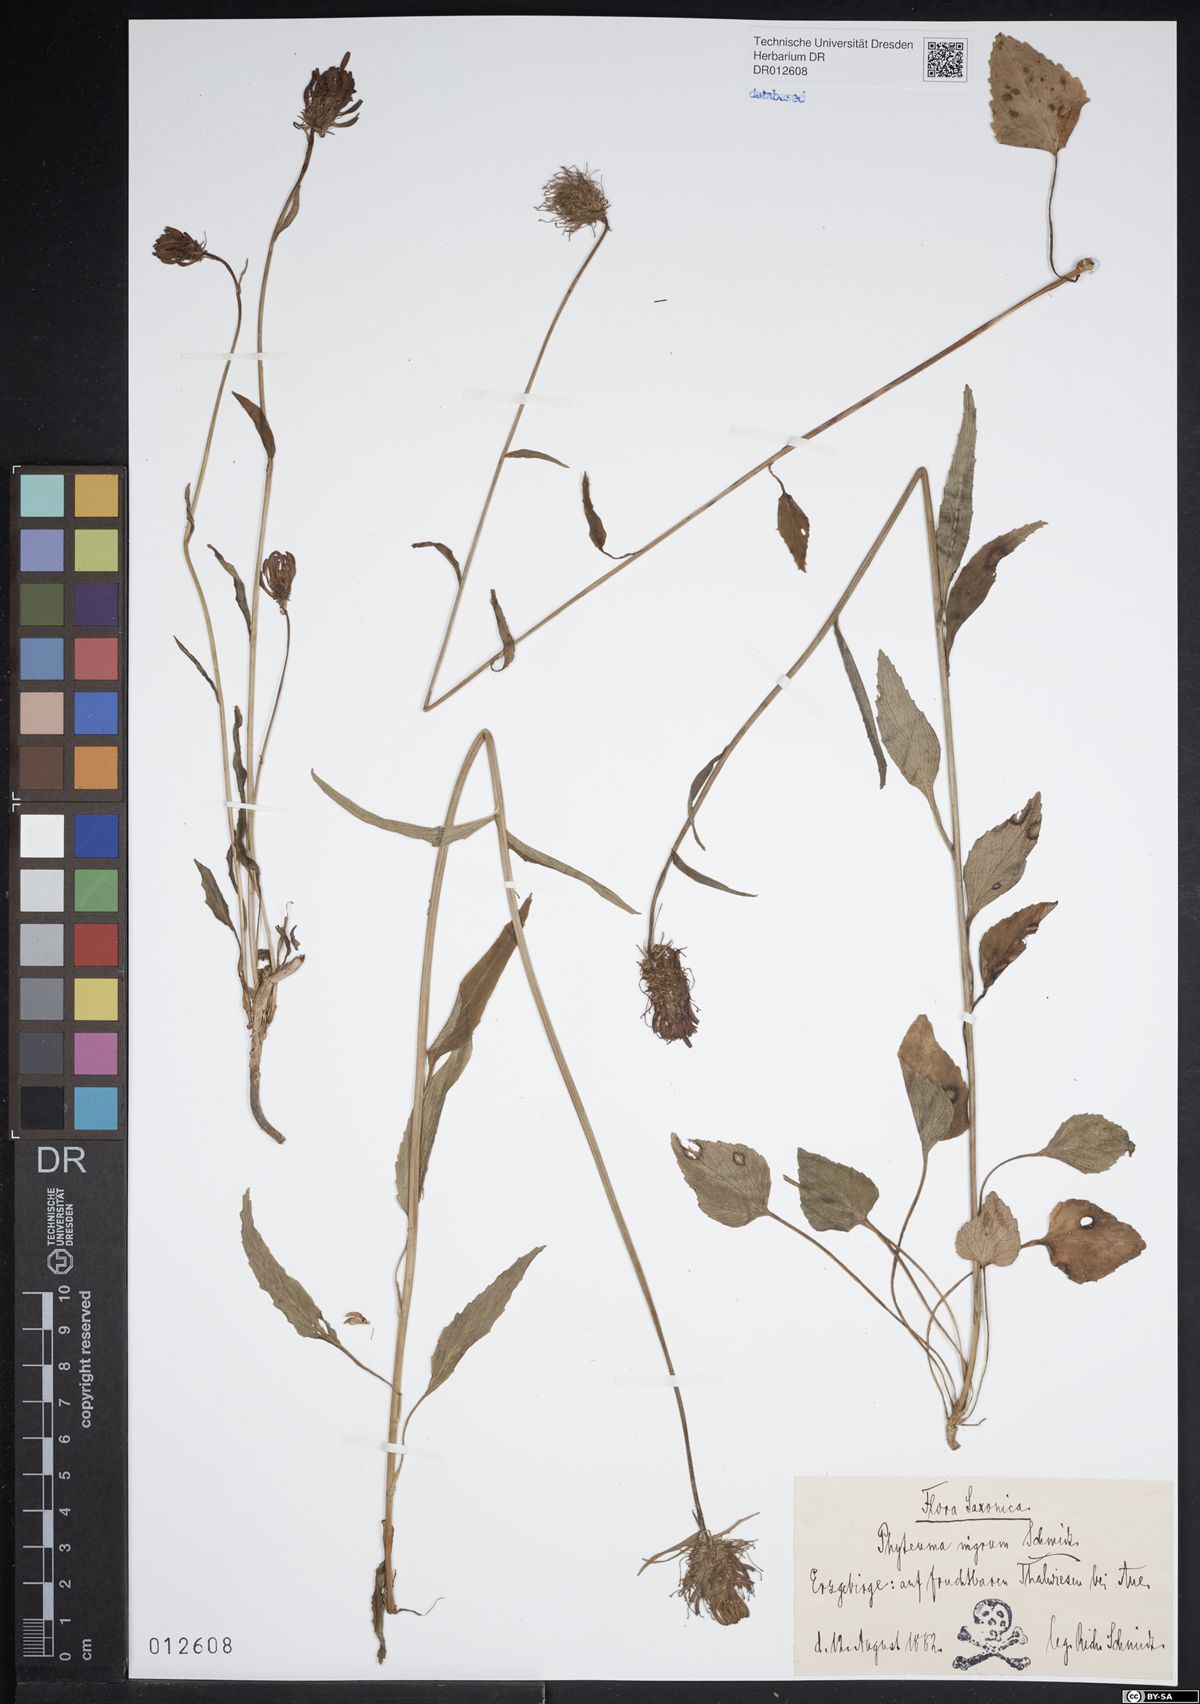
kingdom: Plantae
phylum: Tracheophyta
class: Magnoliopsida
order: Asterales
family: Campanulaceae
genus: Phyteuma
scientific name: Phyteuma nigrum
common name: Black rampion
